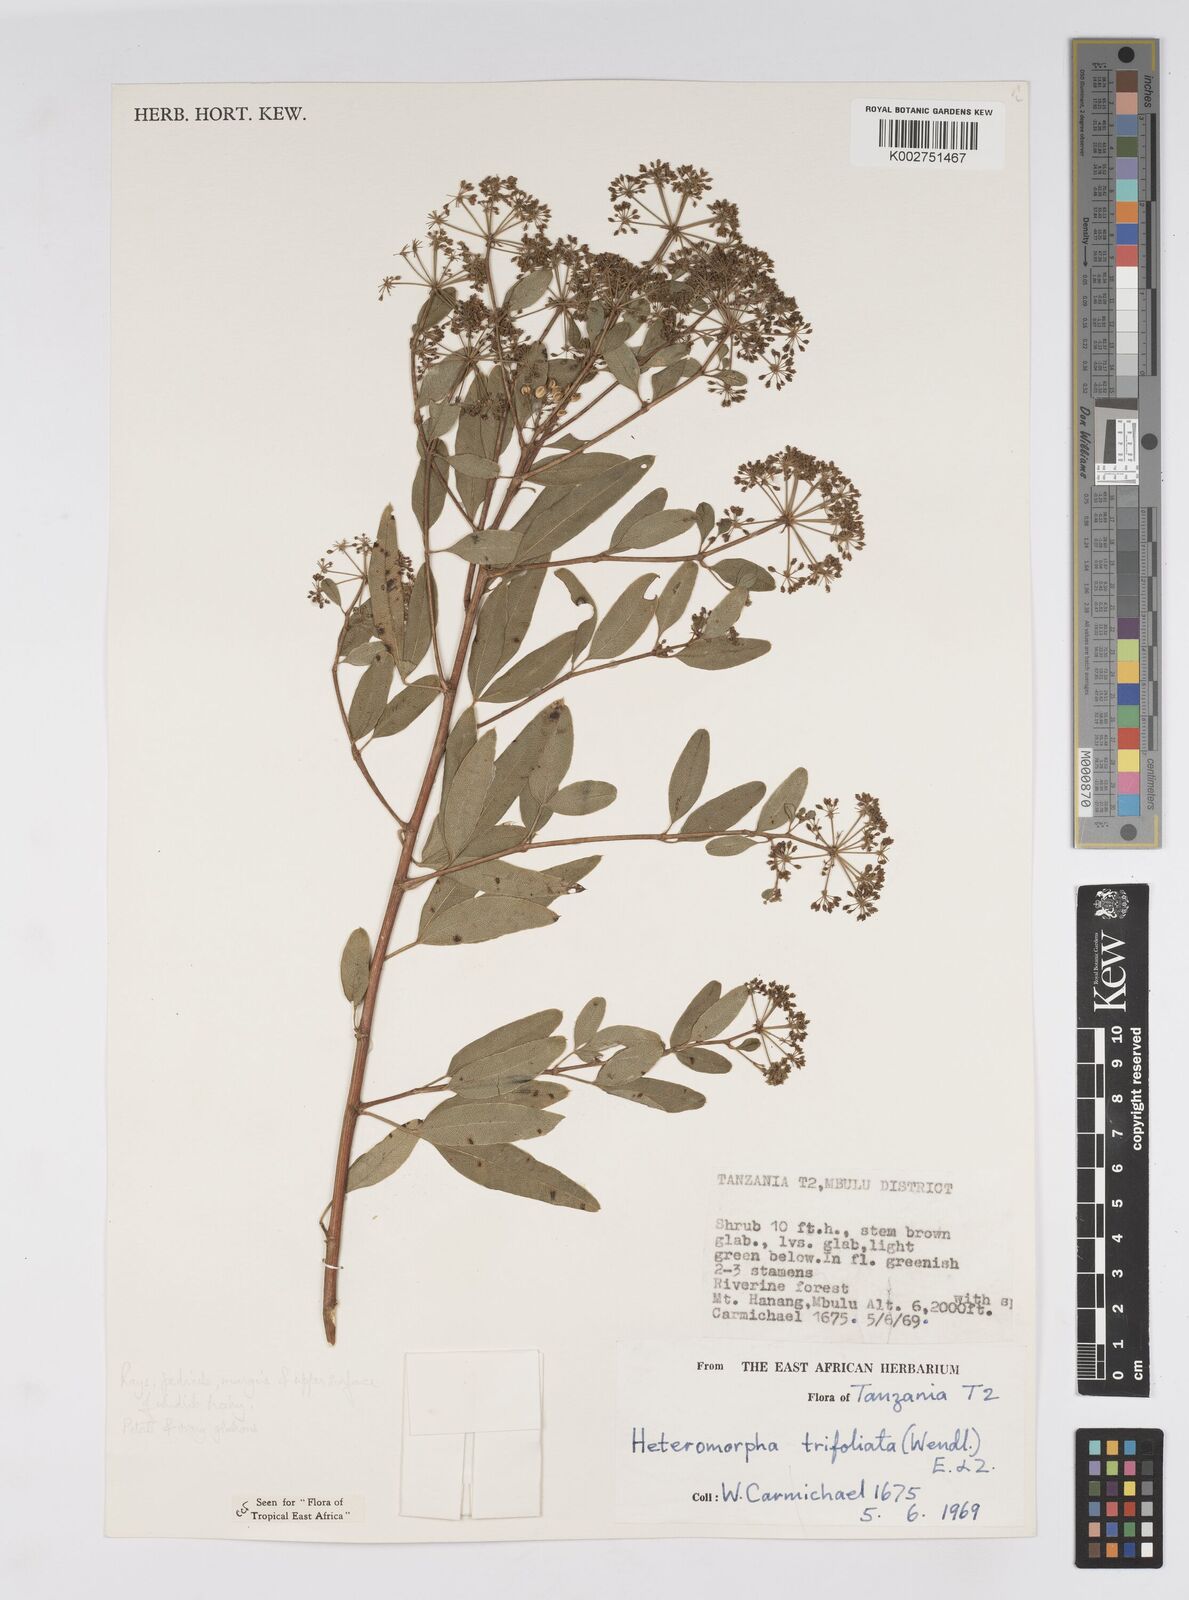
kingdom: Plantae
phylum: Tracheophyta
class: Magnoliopsida
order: Apiales
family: Apiaceae
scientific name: Apiaceae
